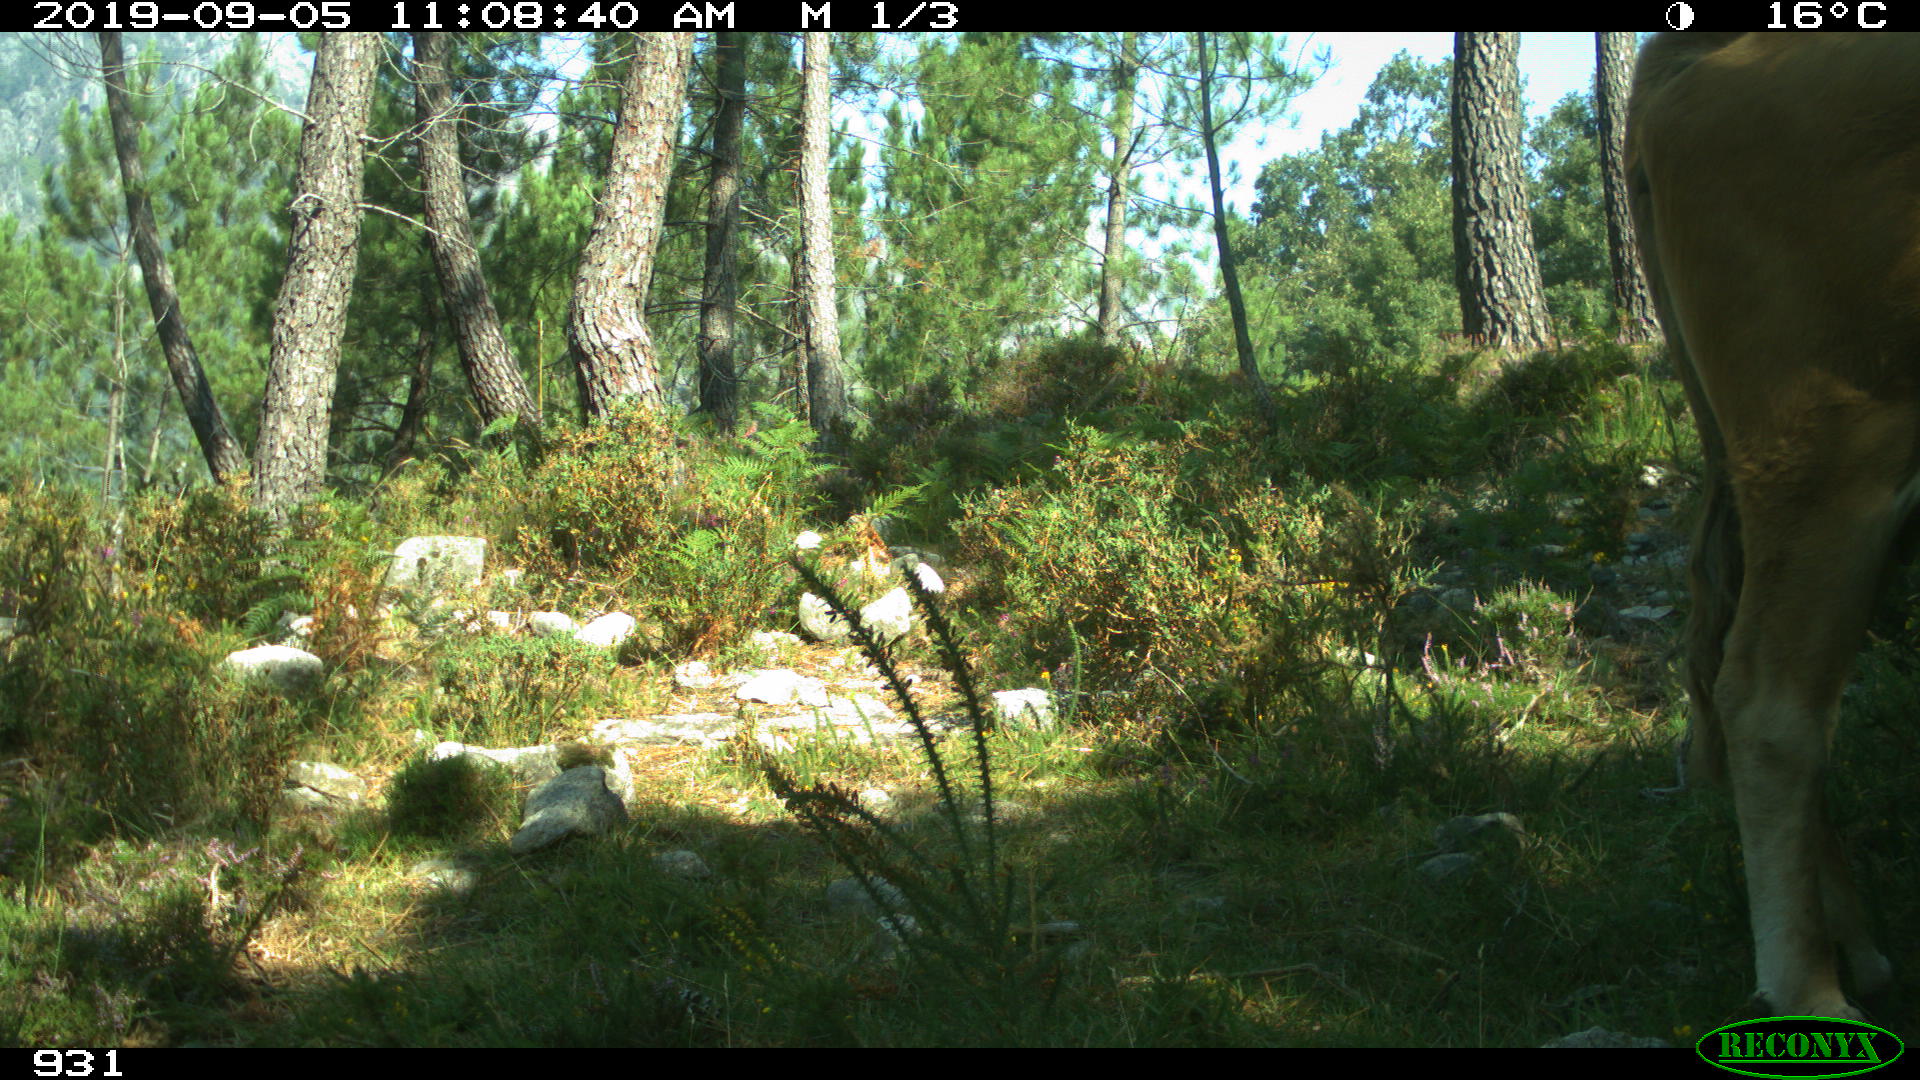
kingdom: Animalia
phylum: Chordata
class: Mammalia
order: Artiodactyla
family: Bovidae
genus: Bos
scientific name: Bos taurus
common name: Domesticated cattle
